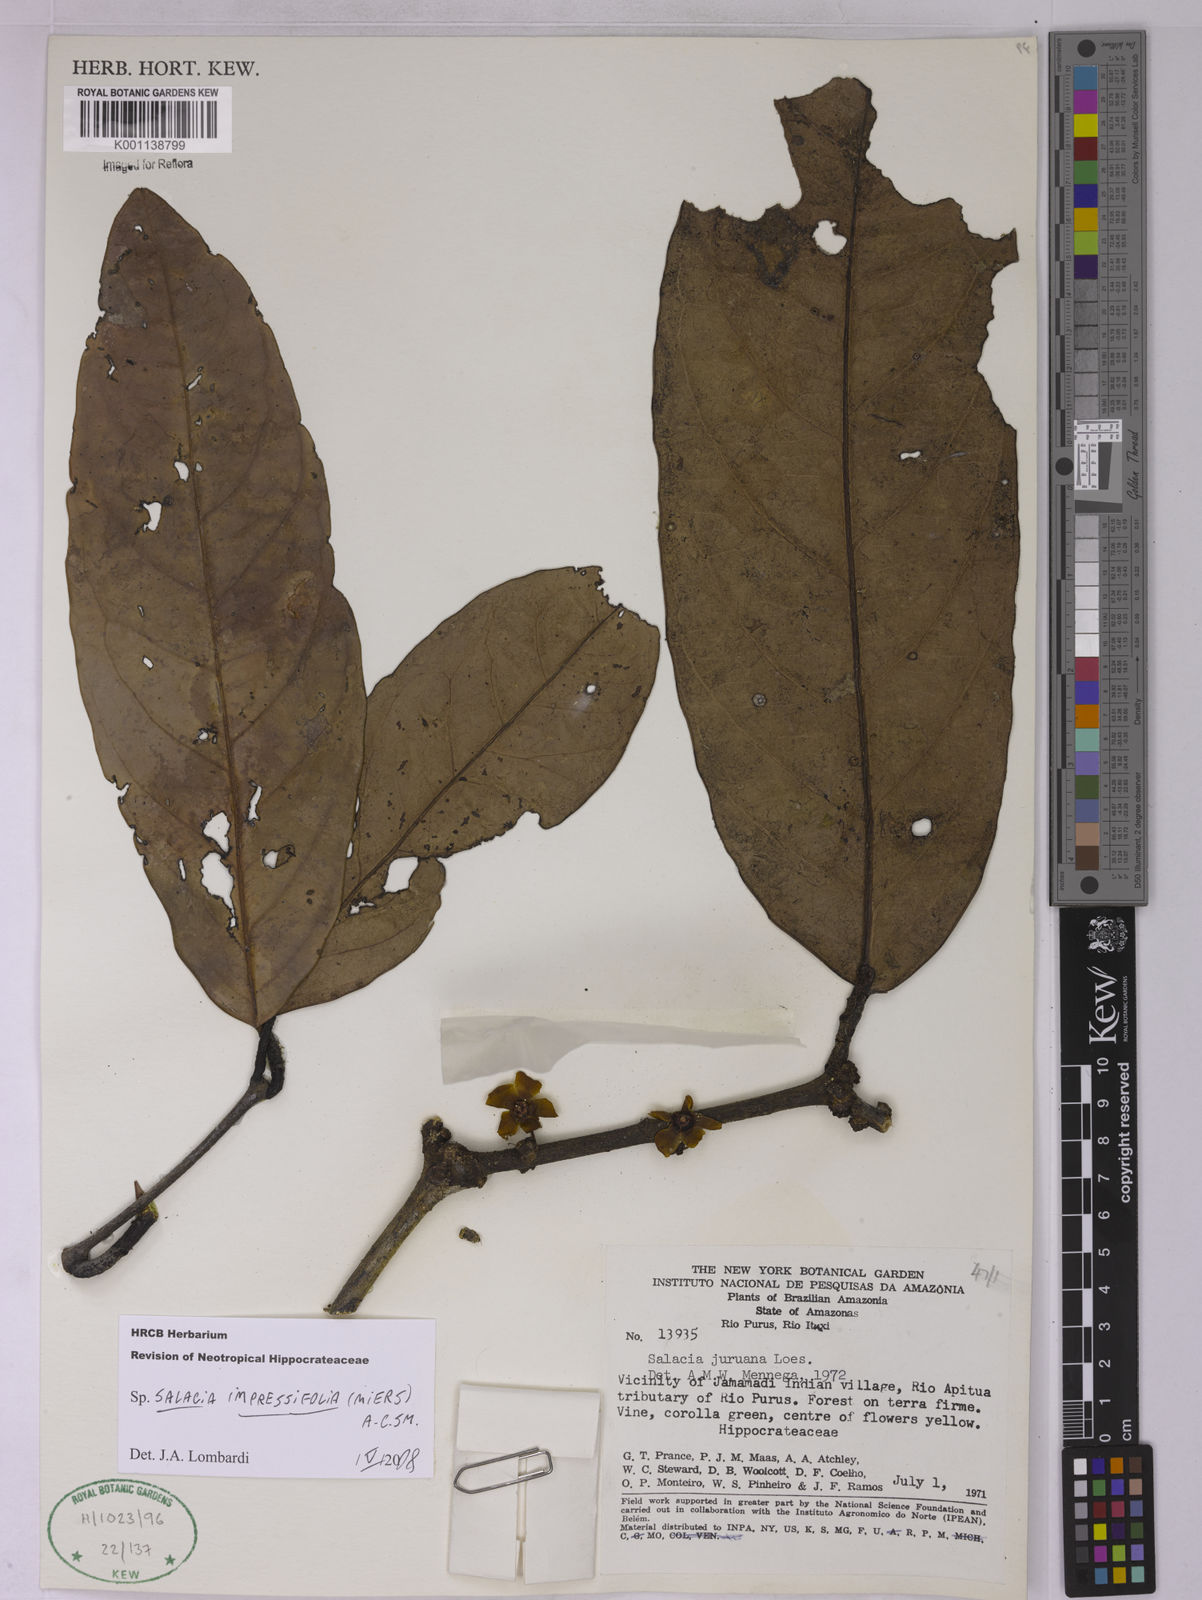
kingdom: Plantae
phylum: Tracheophyta
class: Magnoliopsida
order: Celastrales
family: Celastraceae
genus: Salacia
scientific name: Salacia impressifolia
